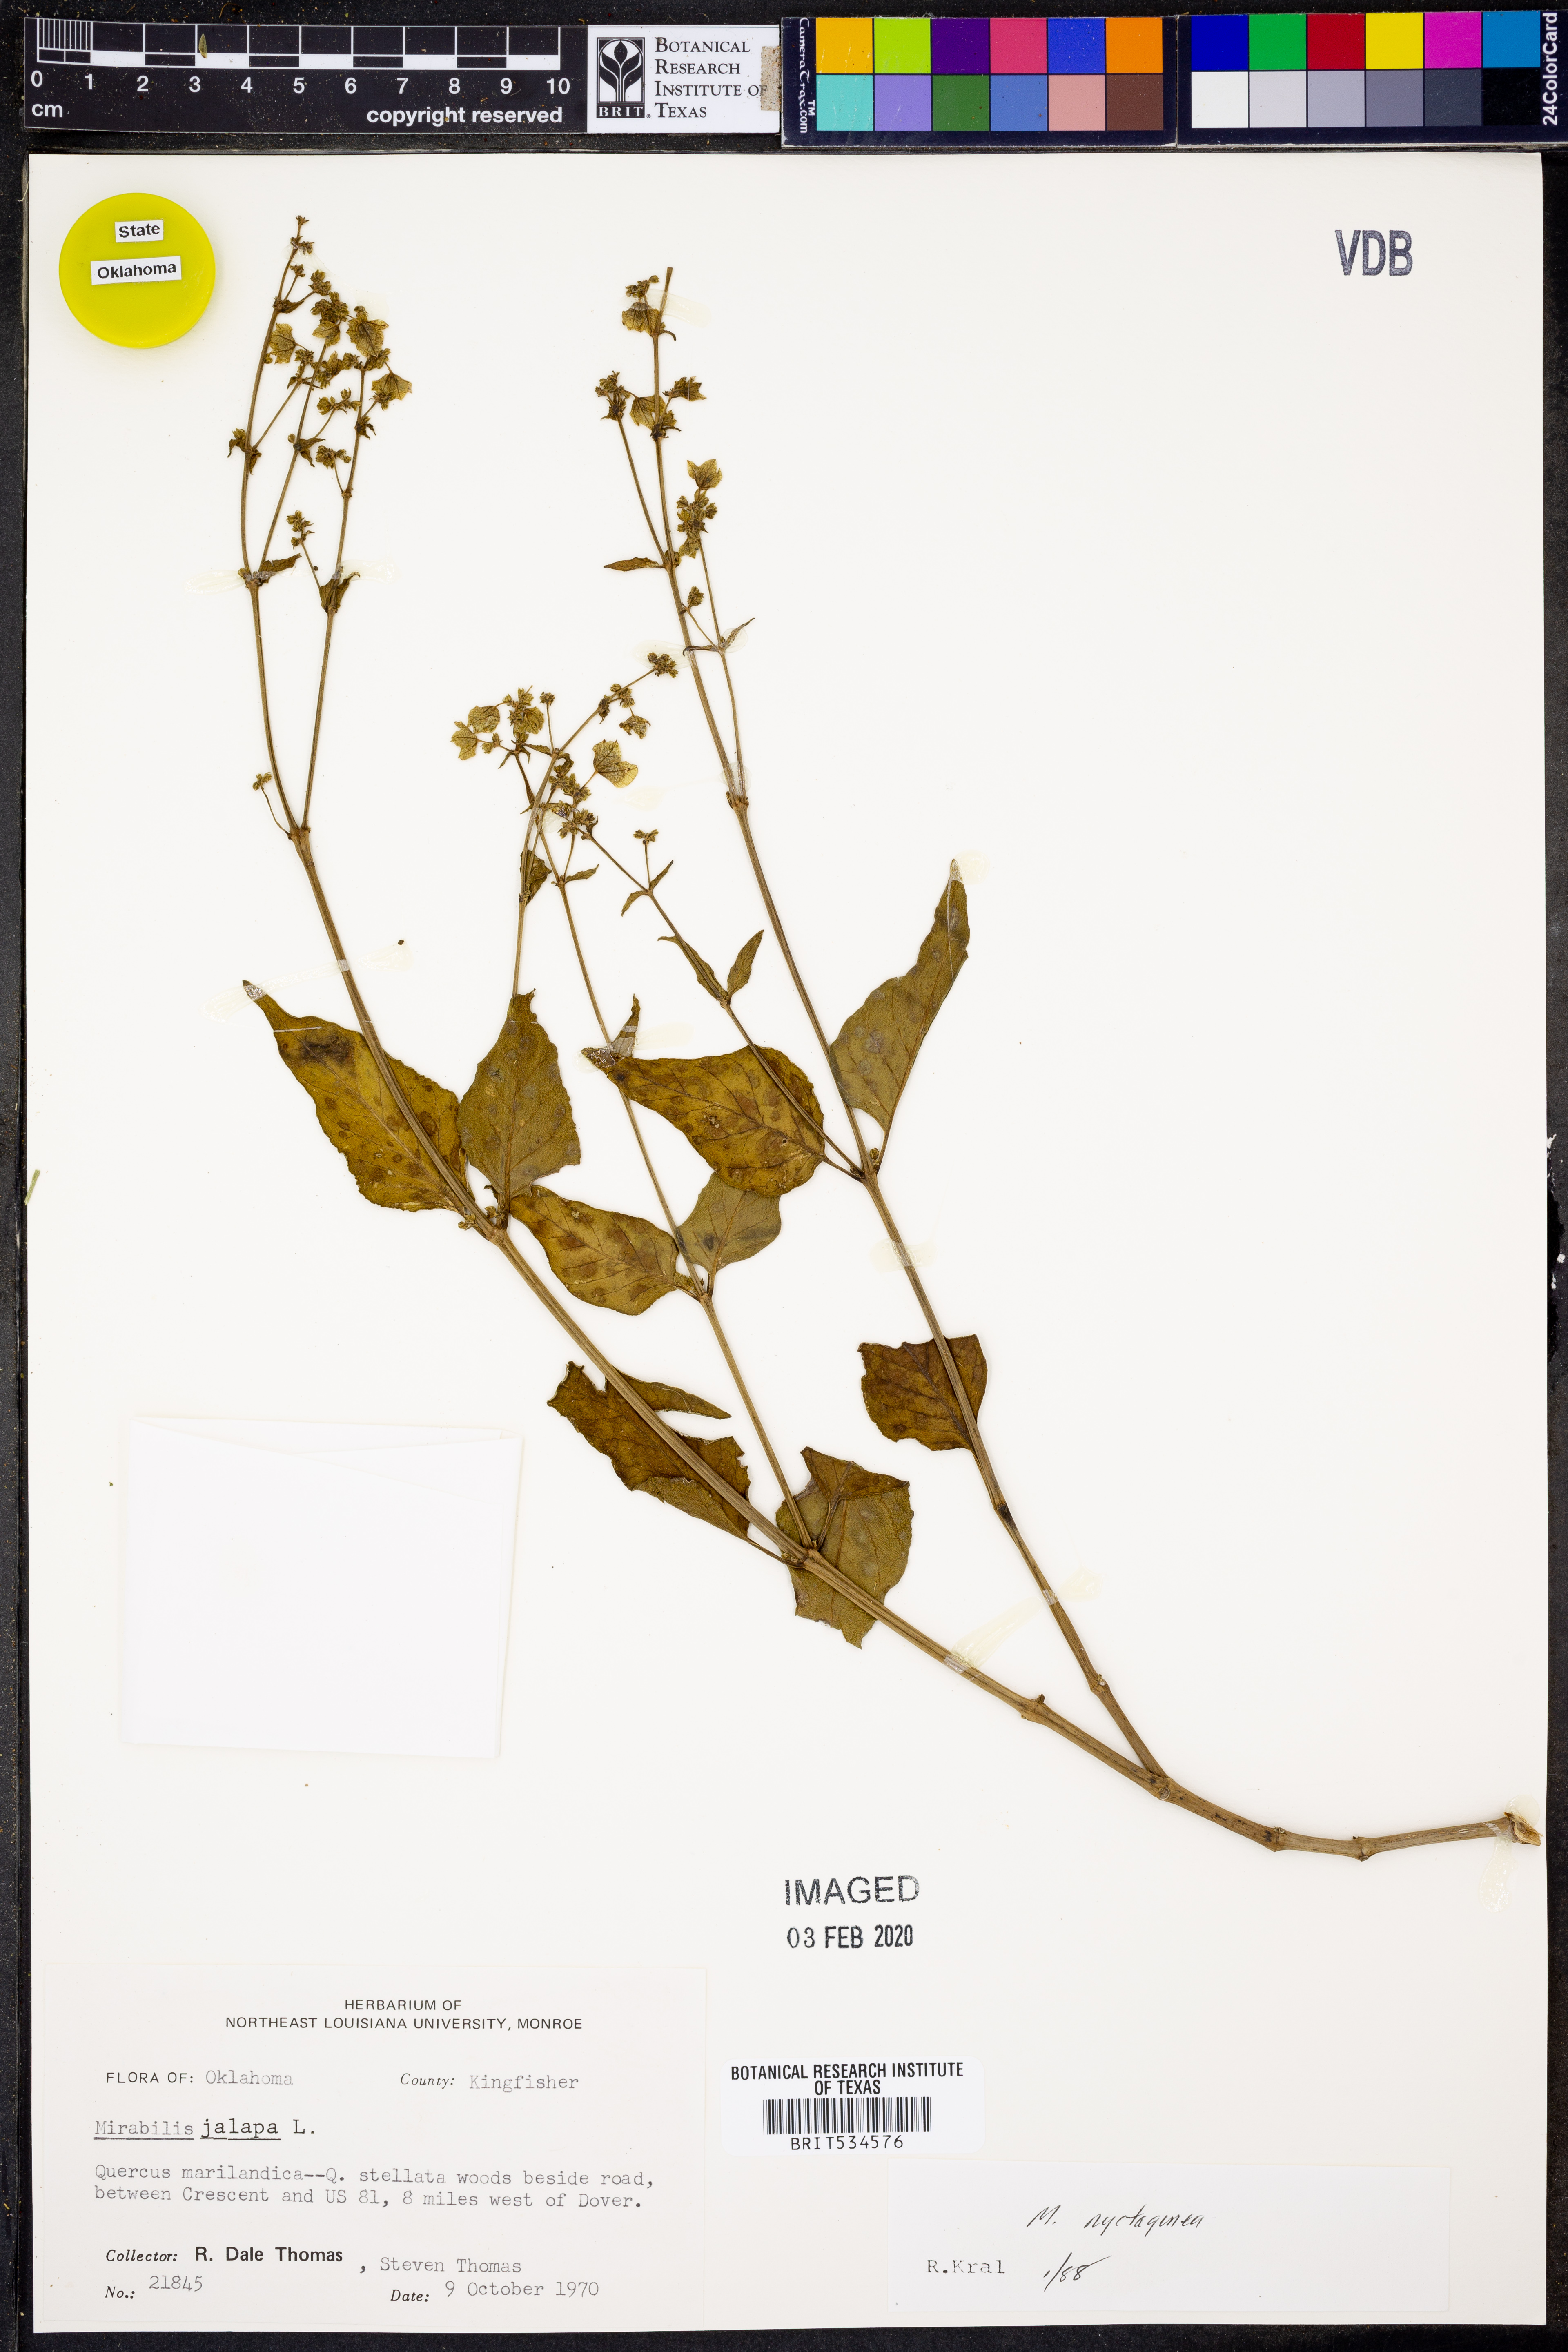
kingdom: Plantae
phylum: Tracheophyta
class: Magnoliopsida
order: Caryophyllales
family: Nyctaginaceae
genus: Mirabilis
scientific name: Mirabilis nyctaginea
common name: Umbrella wort
